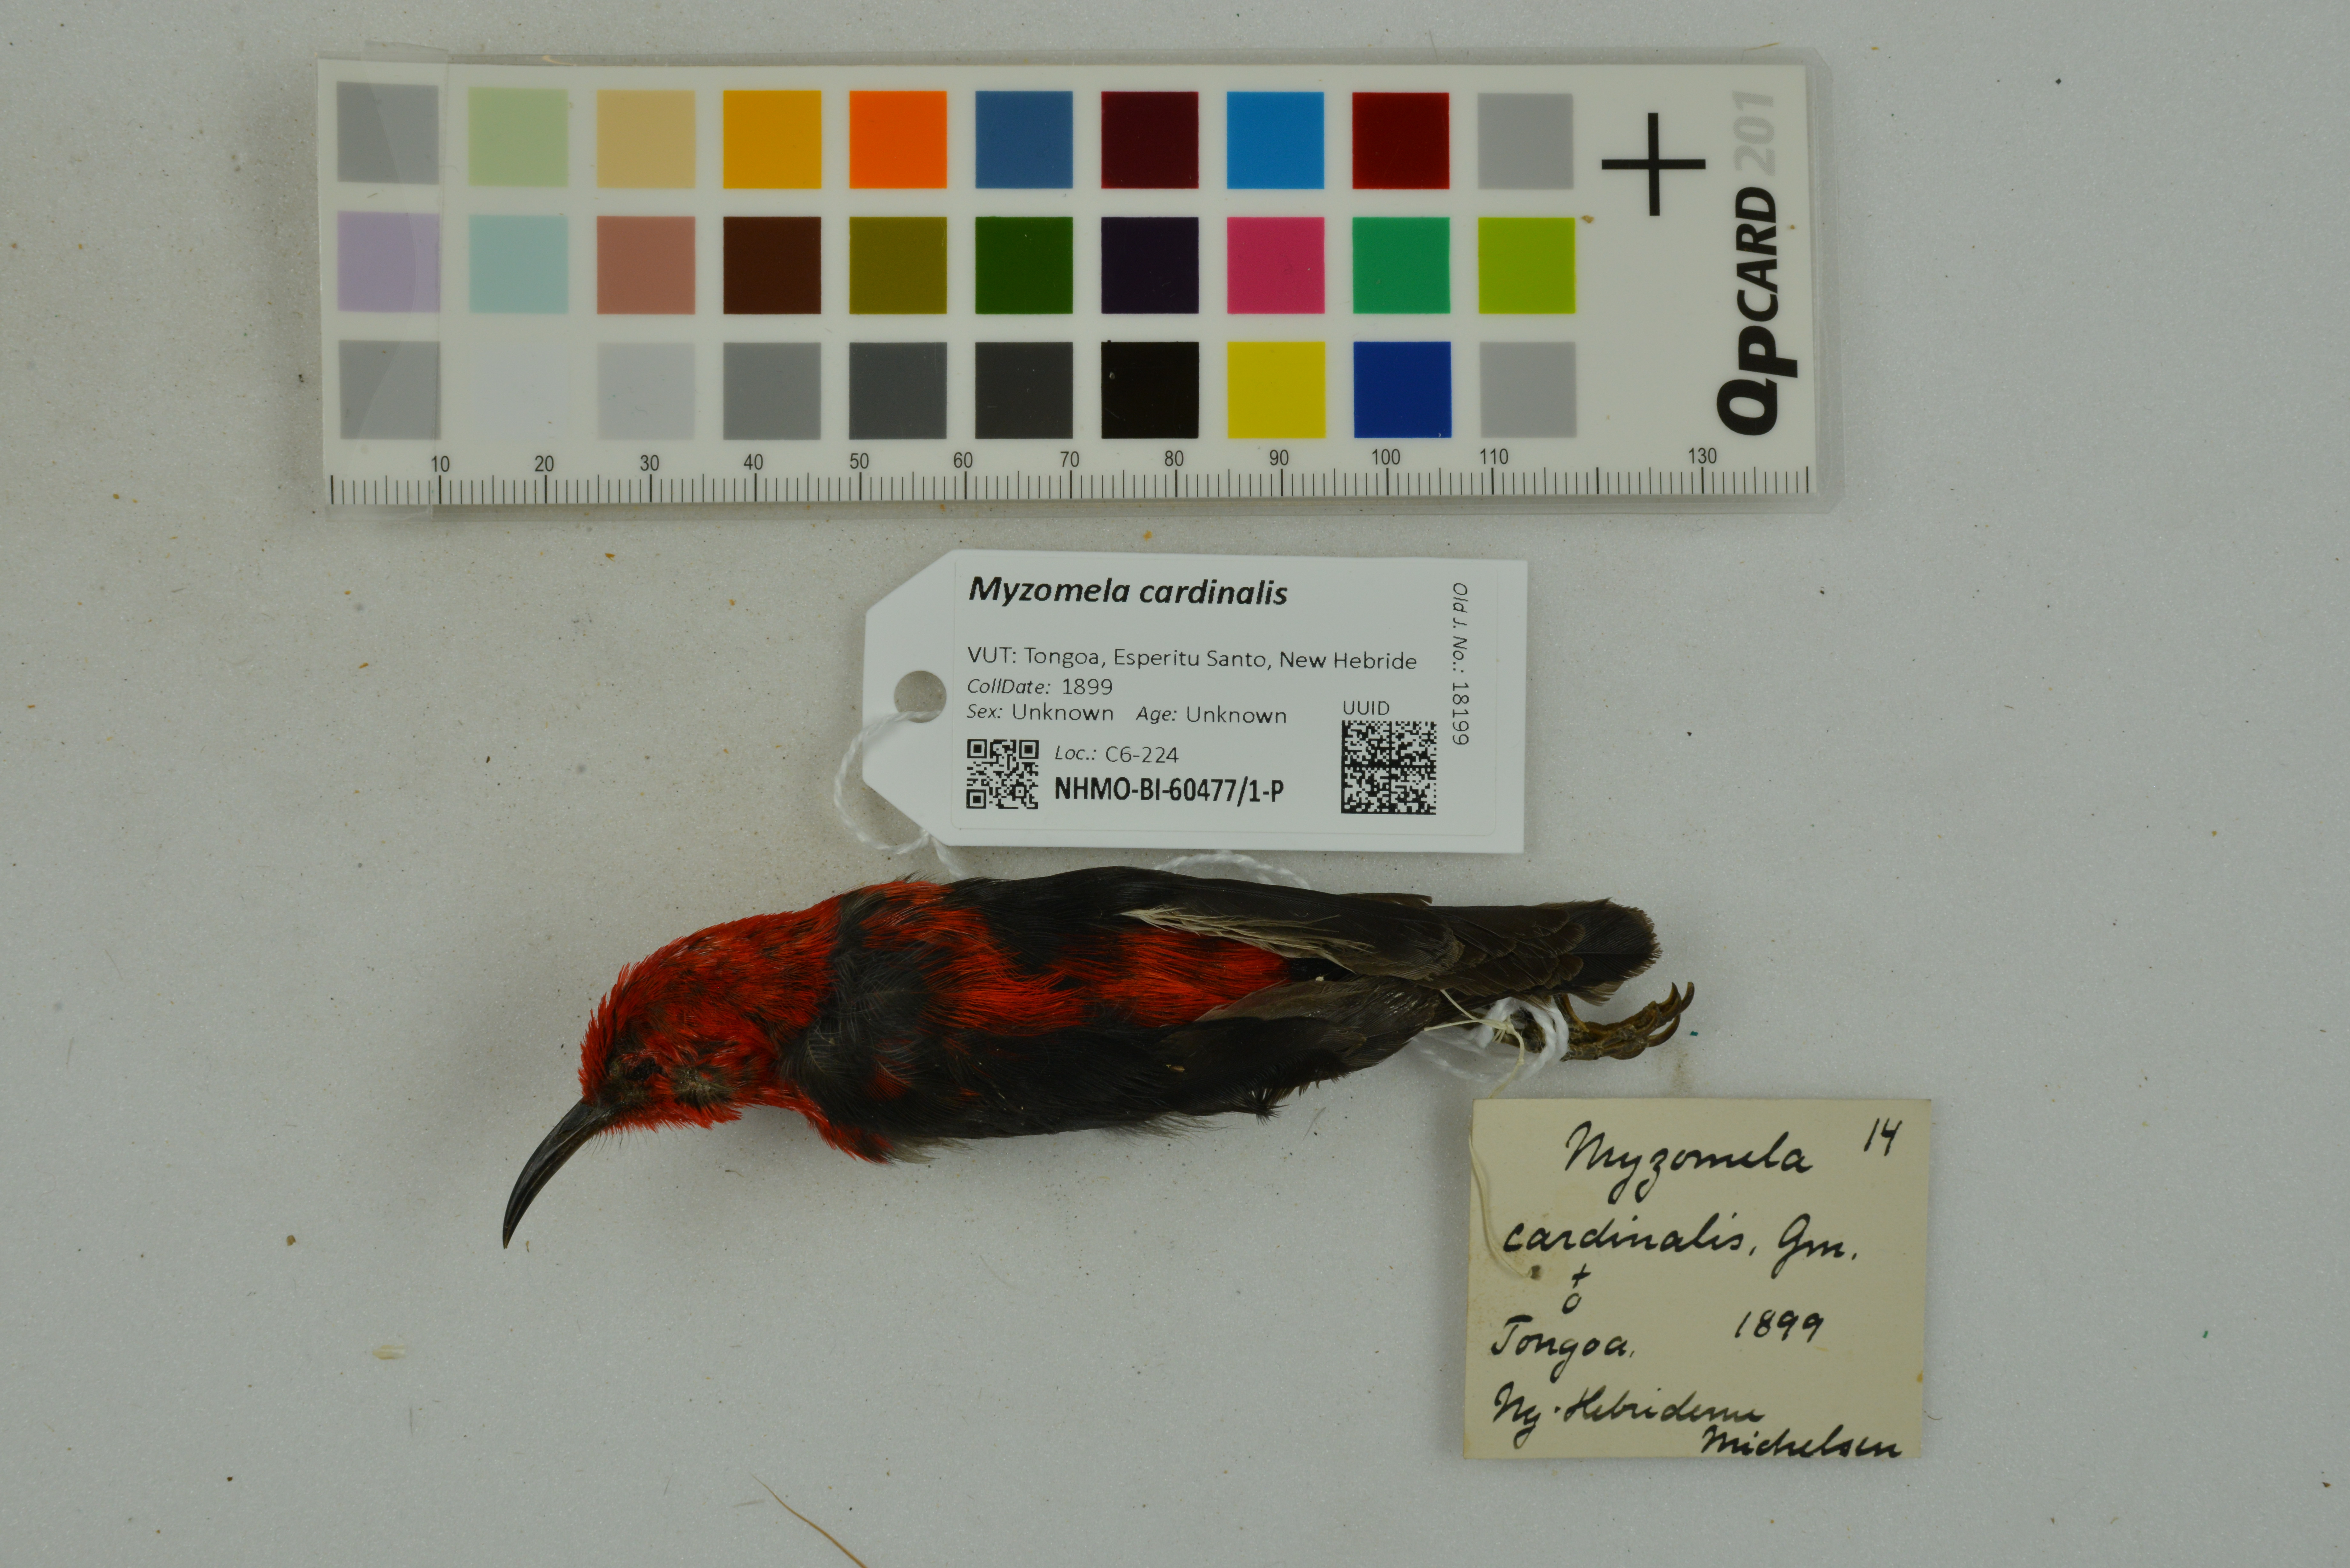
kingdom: Animalia
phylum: Chordata
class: Aves
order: Passeriformes
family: Meliphagidae
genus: Myzomela
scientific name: Myzomela cardinalis
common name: Cardinal myzomela
